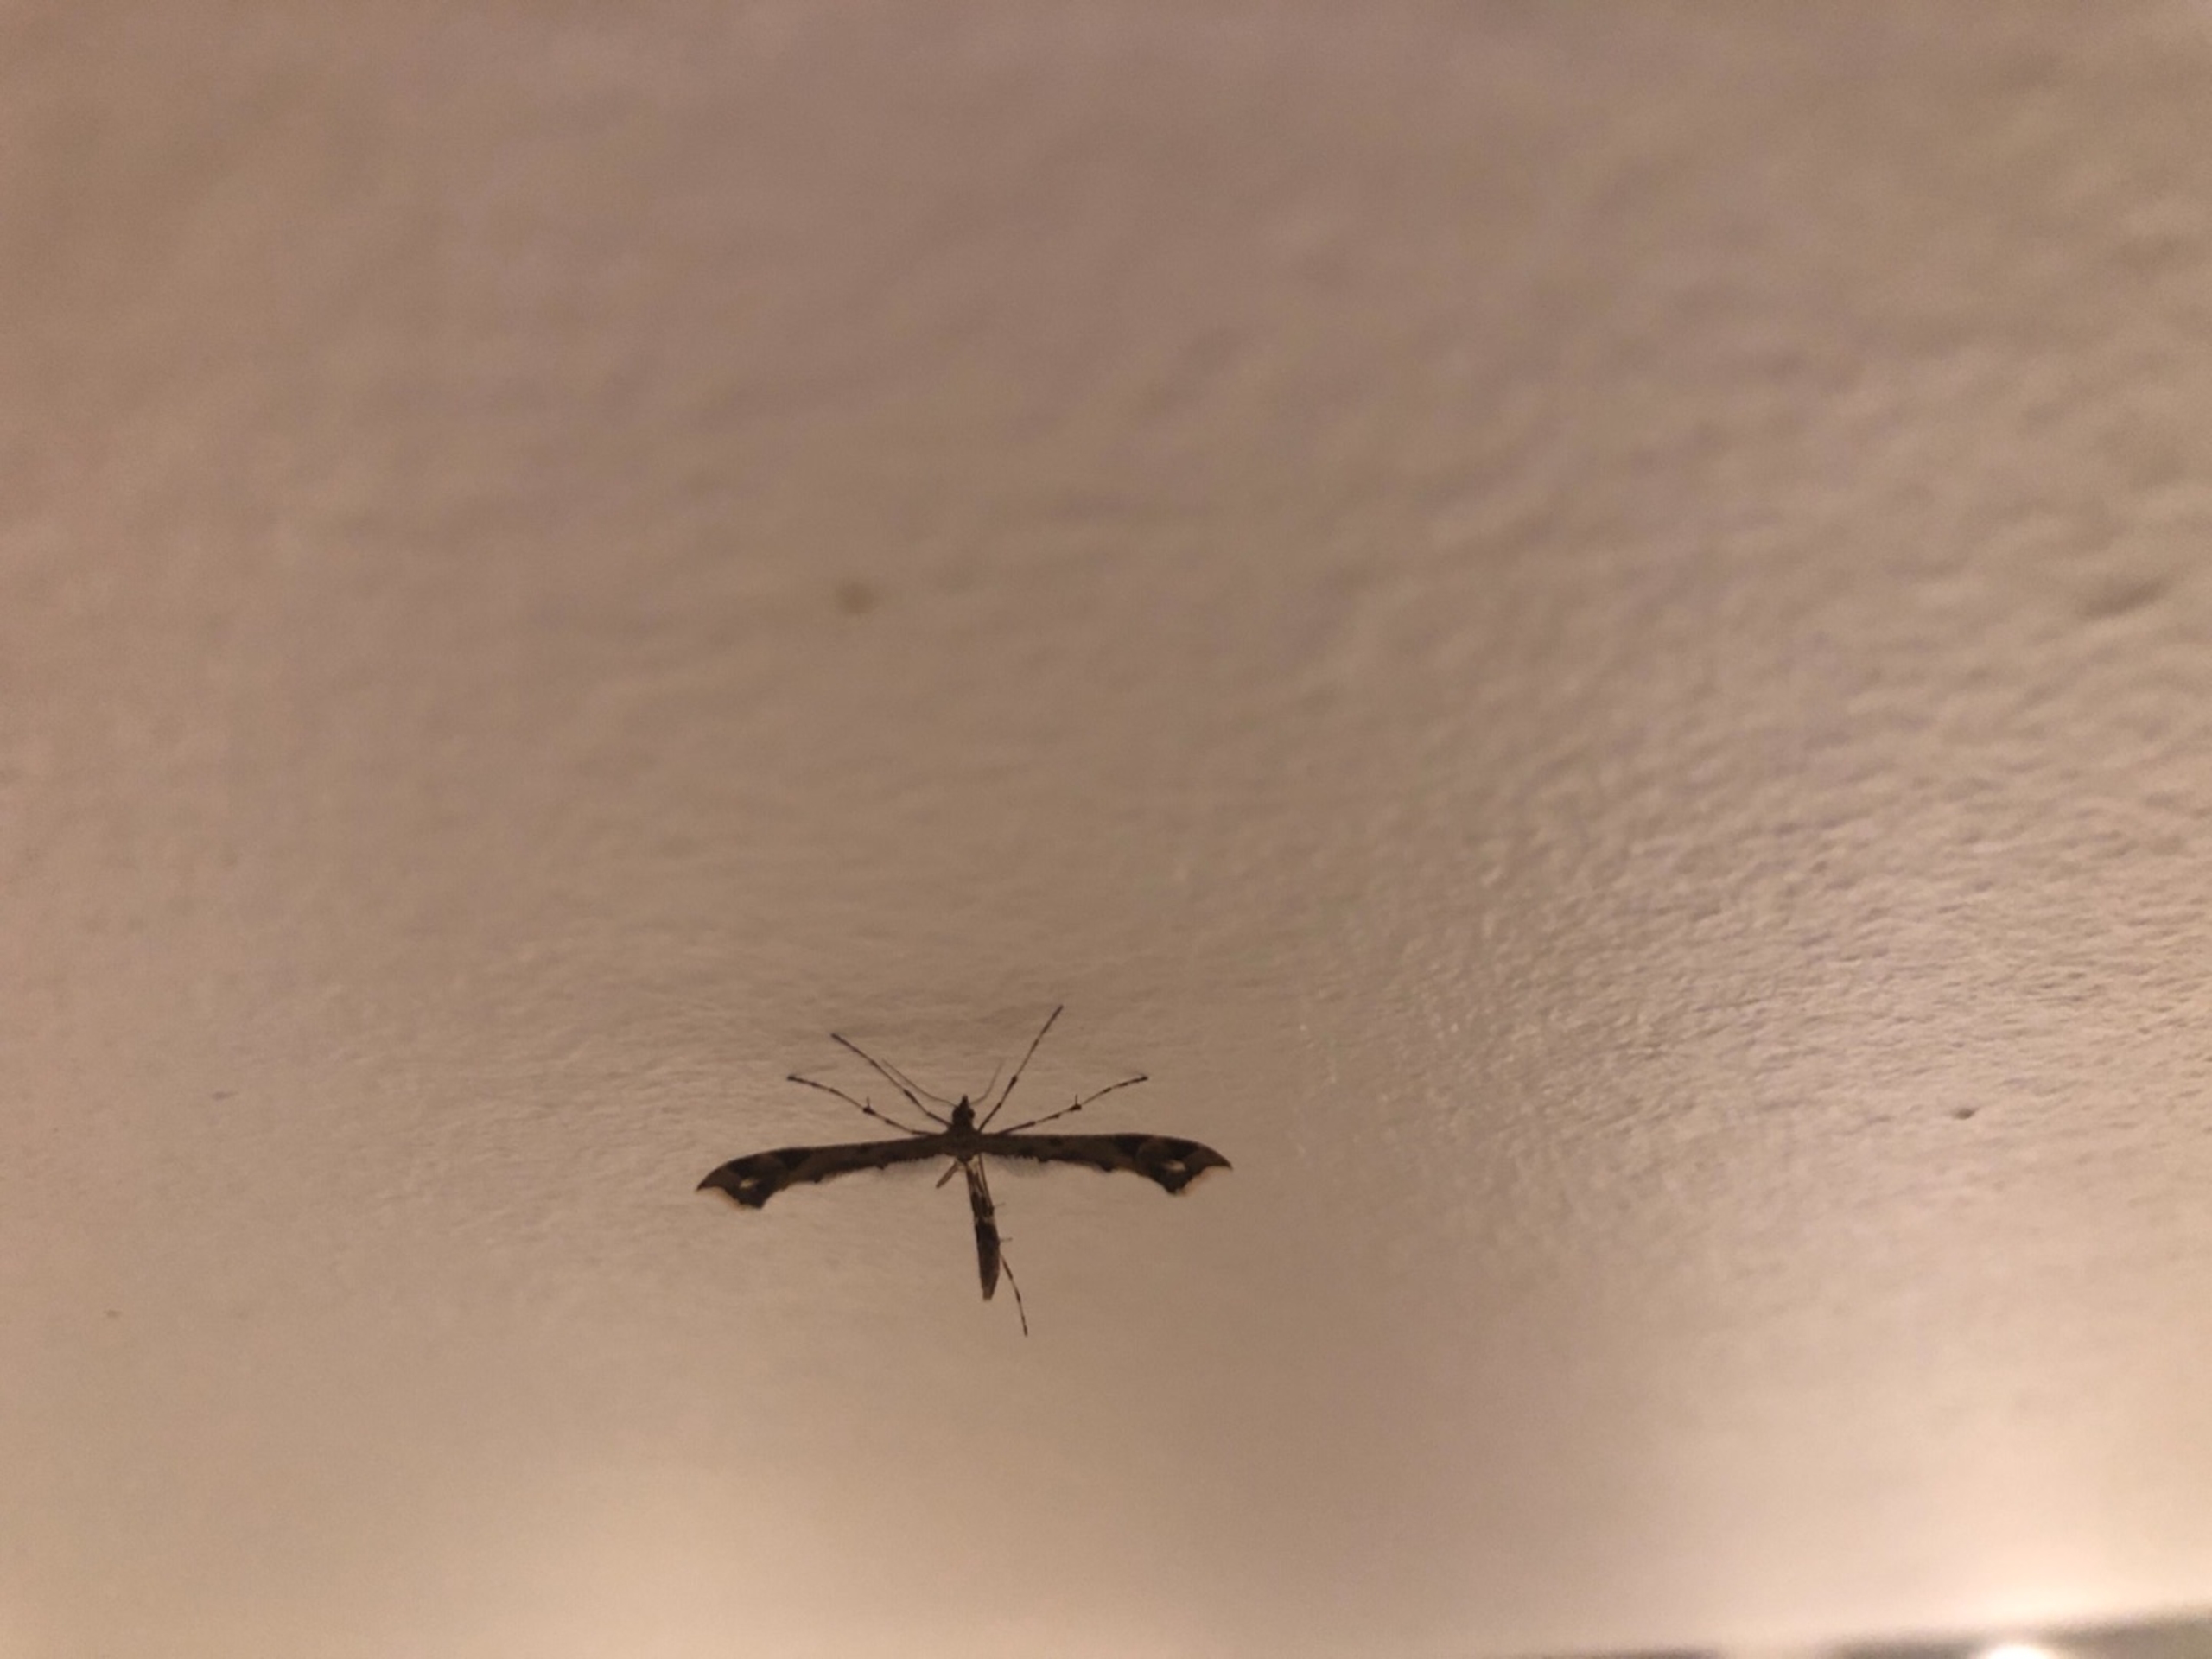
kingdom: Animalia
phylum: Arthropoda
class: Insecta
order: Lepidoptera
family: Pterophoridae
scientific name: Pterophoridae
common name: Fjermøl
